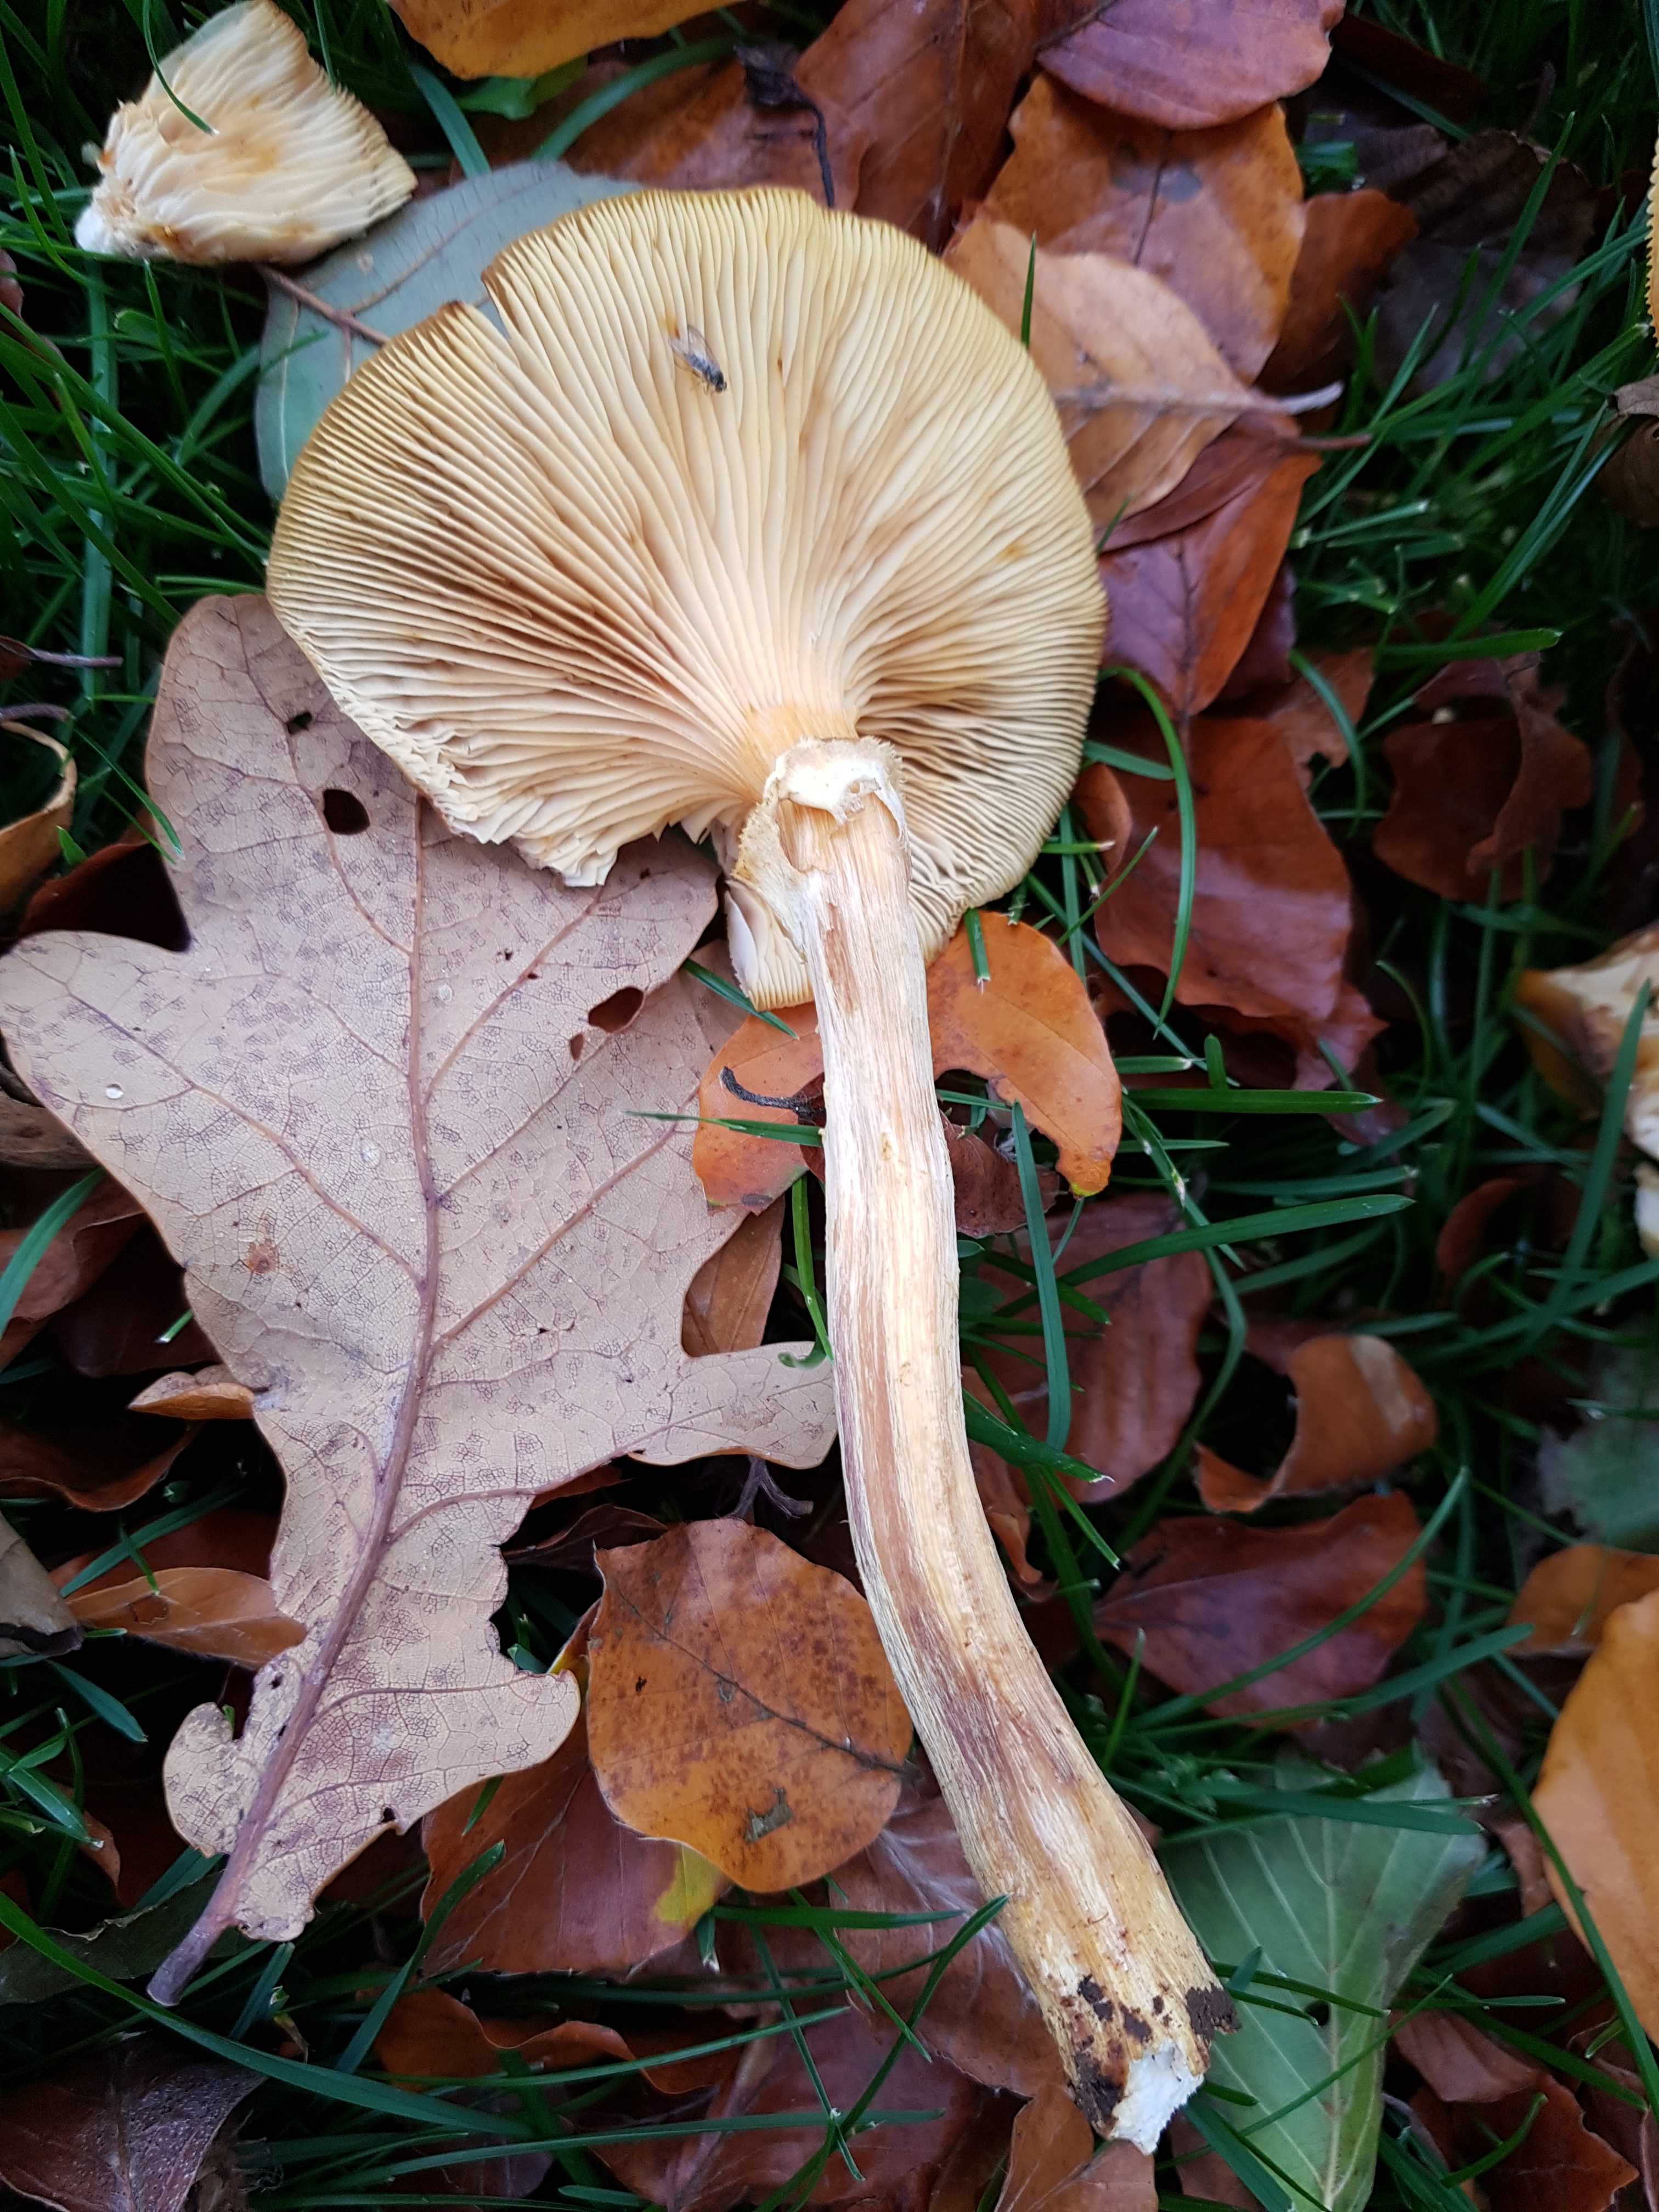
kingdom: Fungi
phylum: Basidiomycota
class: Agaricomycetes
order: Agaricales
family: Physalacriaceae
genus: Armillaria
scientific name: Armillaria
